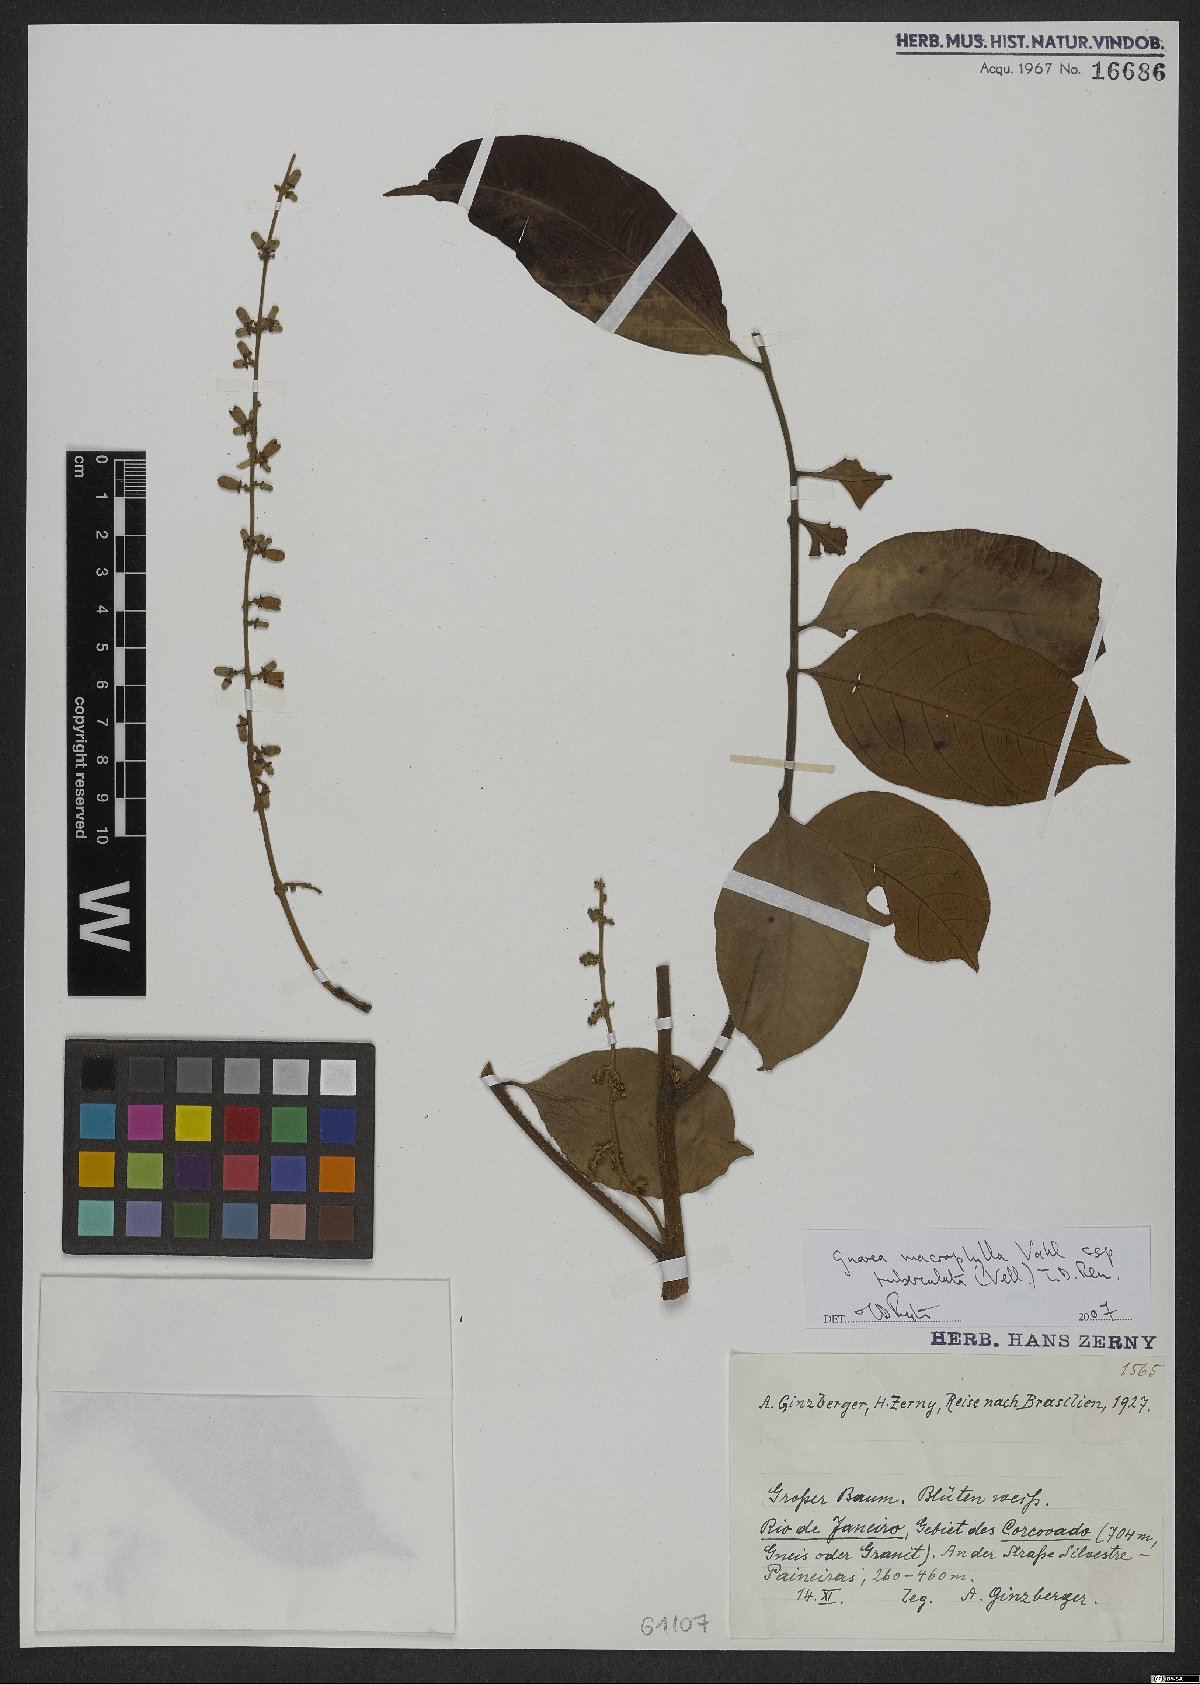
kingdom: Plantae
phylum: Tracheophyta
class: Magnoliopsida
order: Sapindales
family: Meliaceae
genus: Guarea
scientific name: Guarea macrophylla
